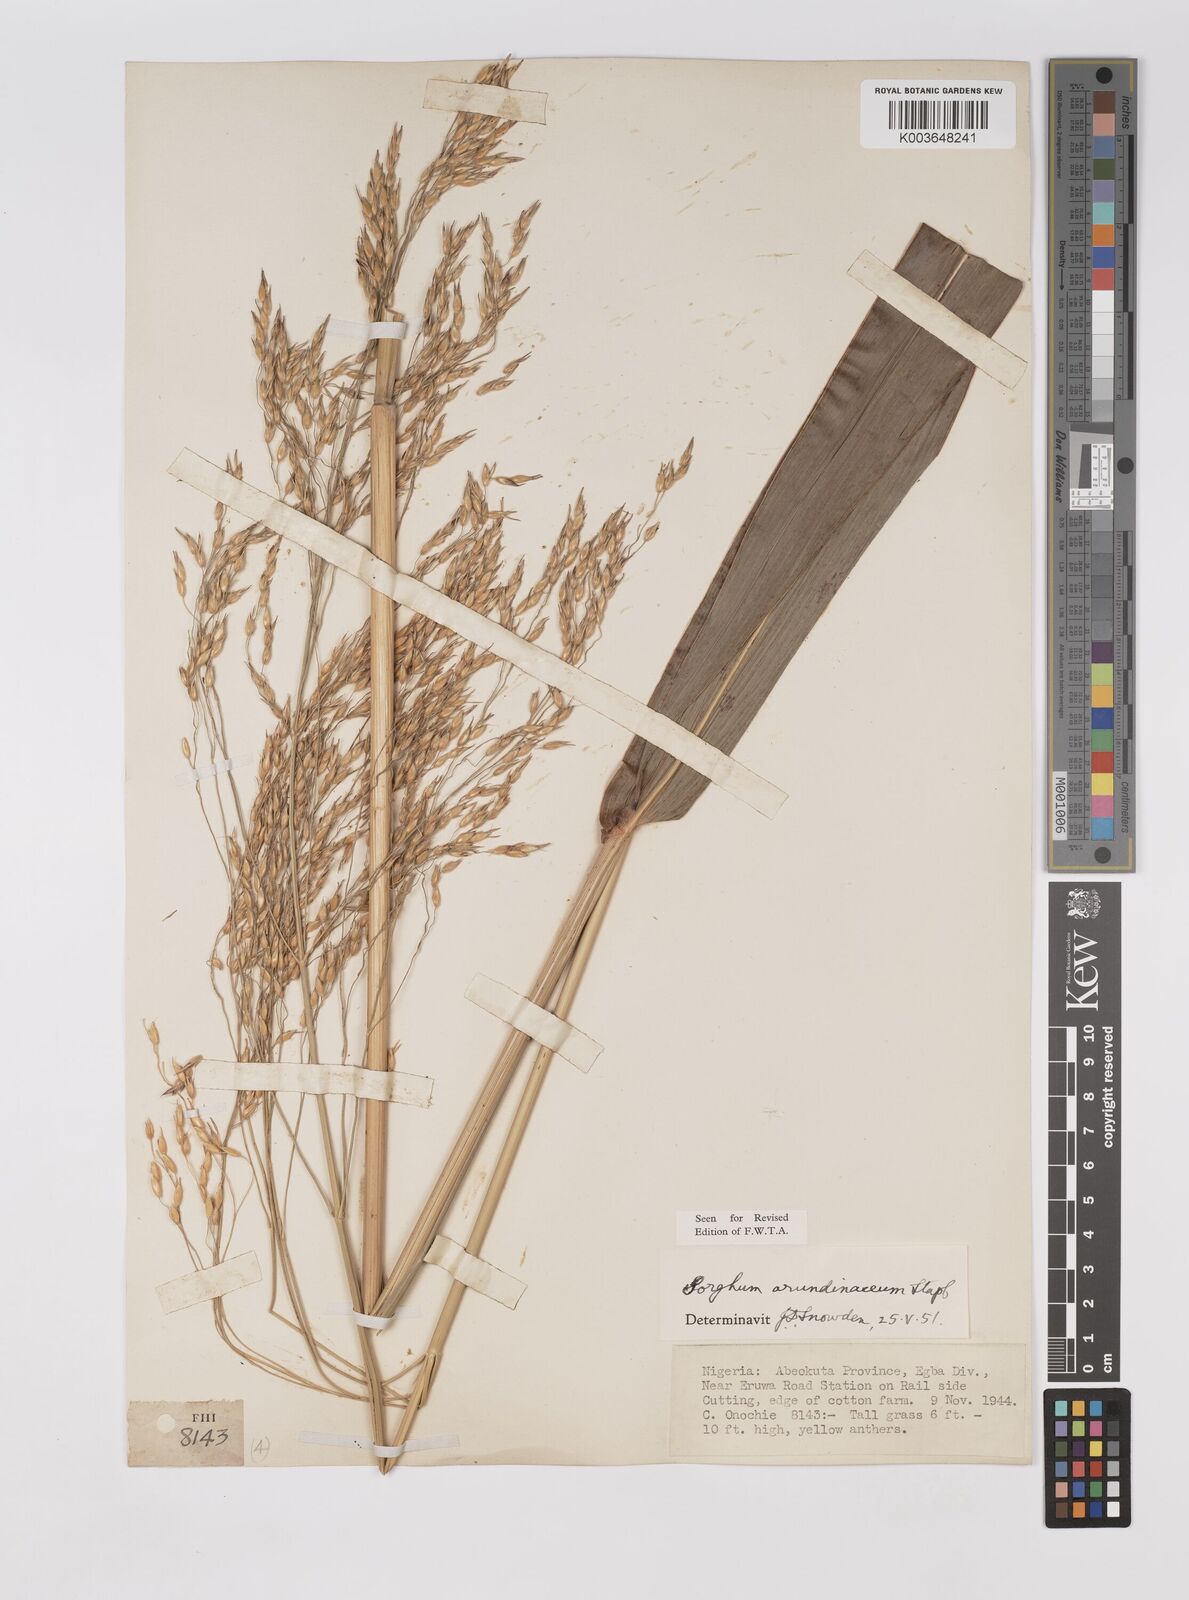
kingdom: Plantae
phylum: Tracheophyta
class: Liliopsida
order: Poales
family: Poaceae
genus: Sorghum
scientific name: Sorghum arundinaceum
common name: Sorghum
